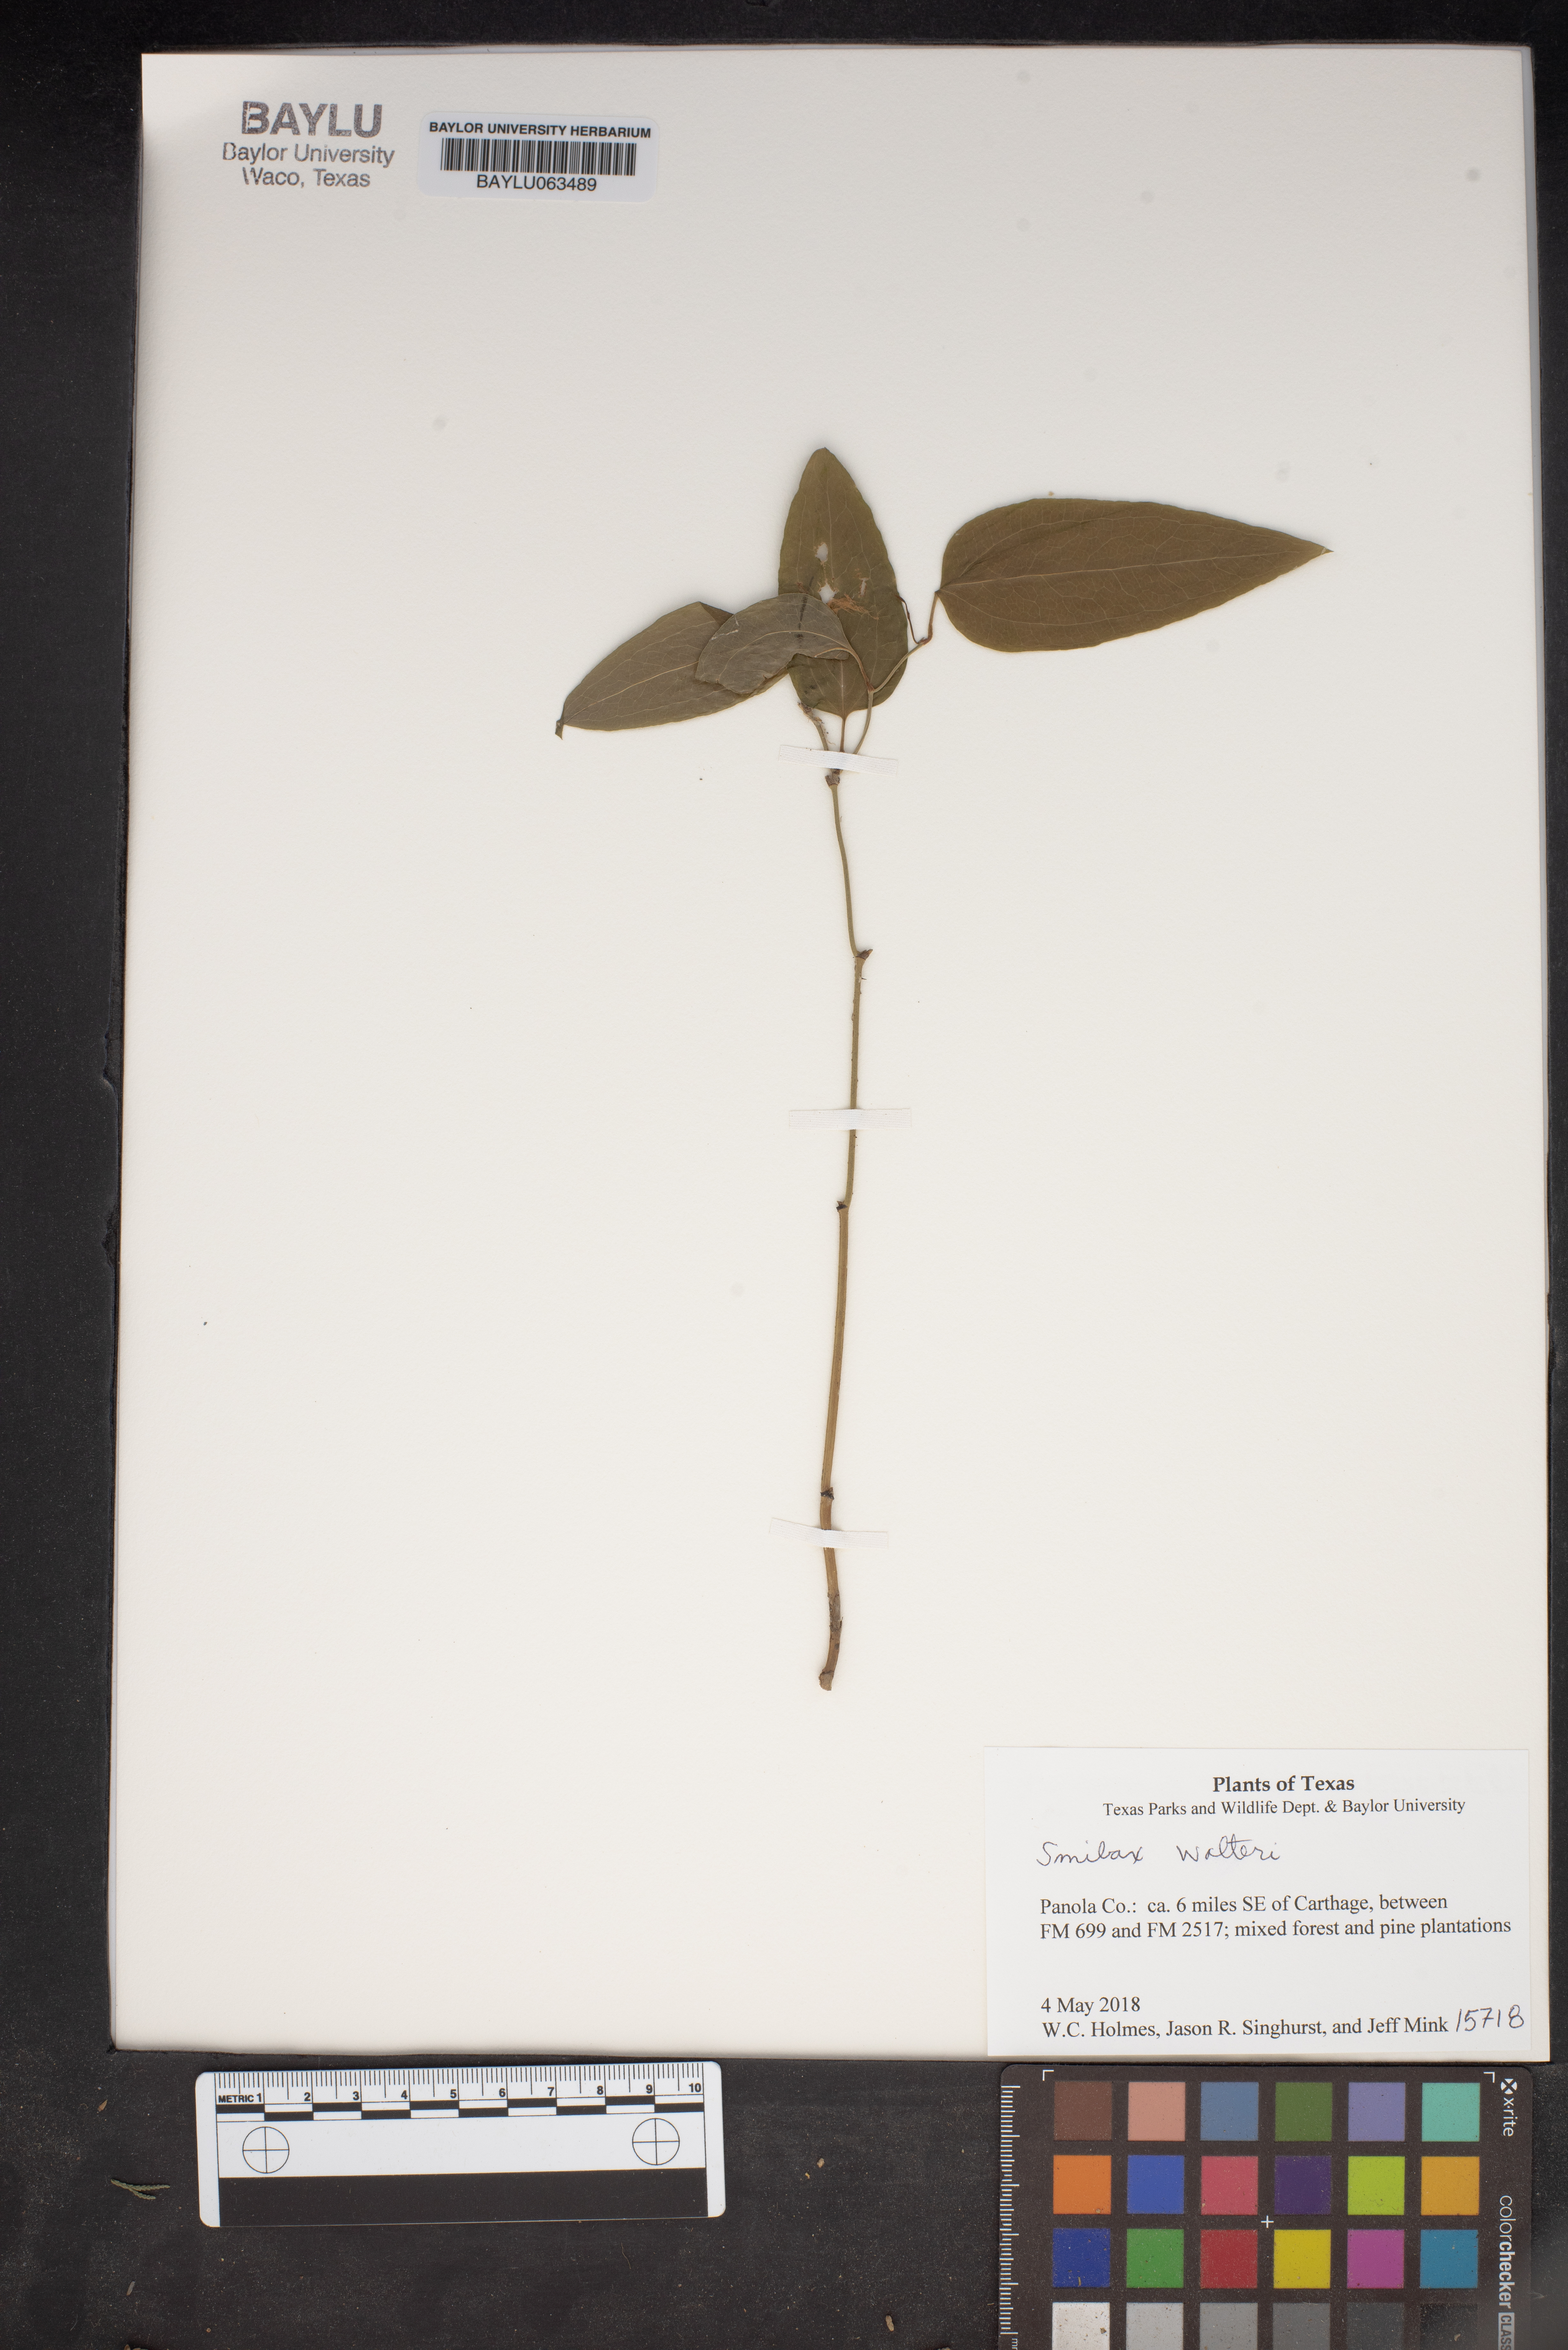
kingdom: Plantae
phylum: Tracheophyta
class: Liliopsida
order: Liliales
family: Smilacaceae
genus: Smilax
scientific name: Smilax walteri
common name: Coral greenbrier
